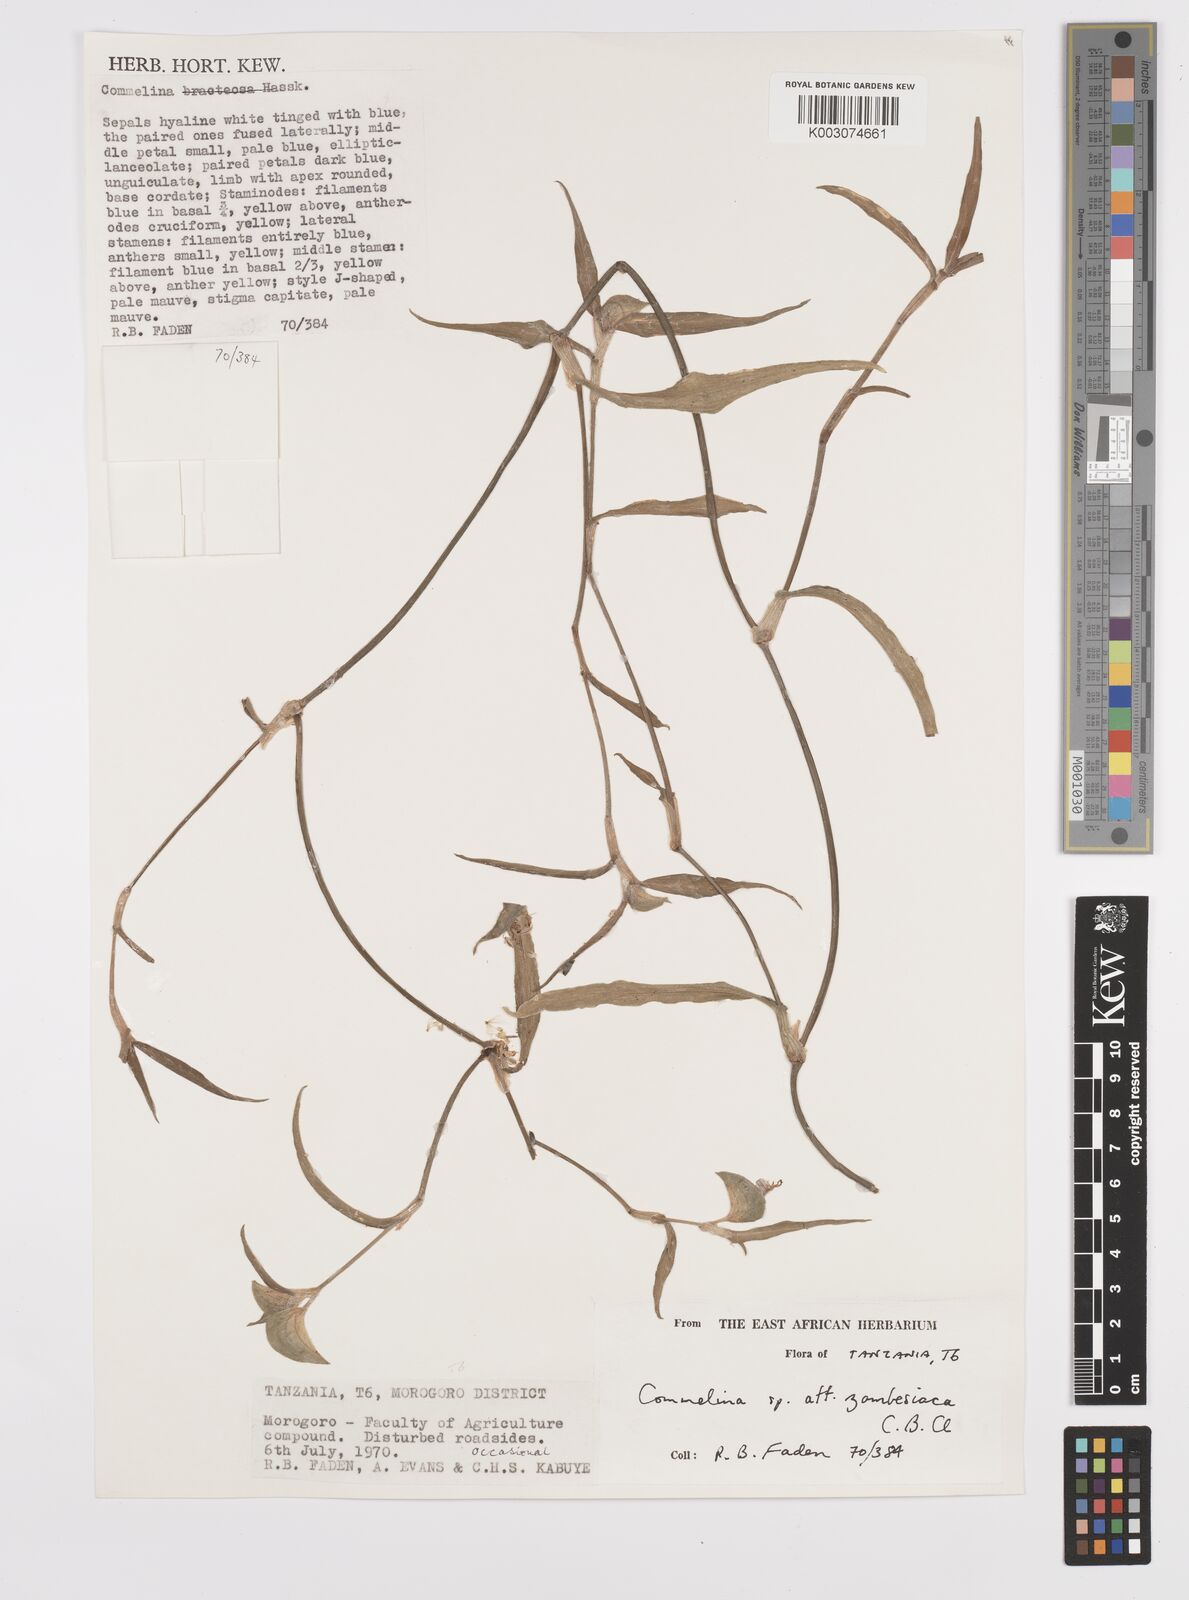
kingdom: Plantae
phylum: Tracheophyta
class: Liliopsida
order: Commelinales
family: Commelinaceae
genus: Commelina
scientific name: Commelina erecta
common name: Blousel blommetjie
